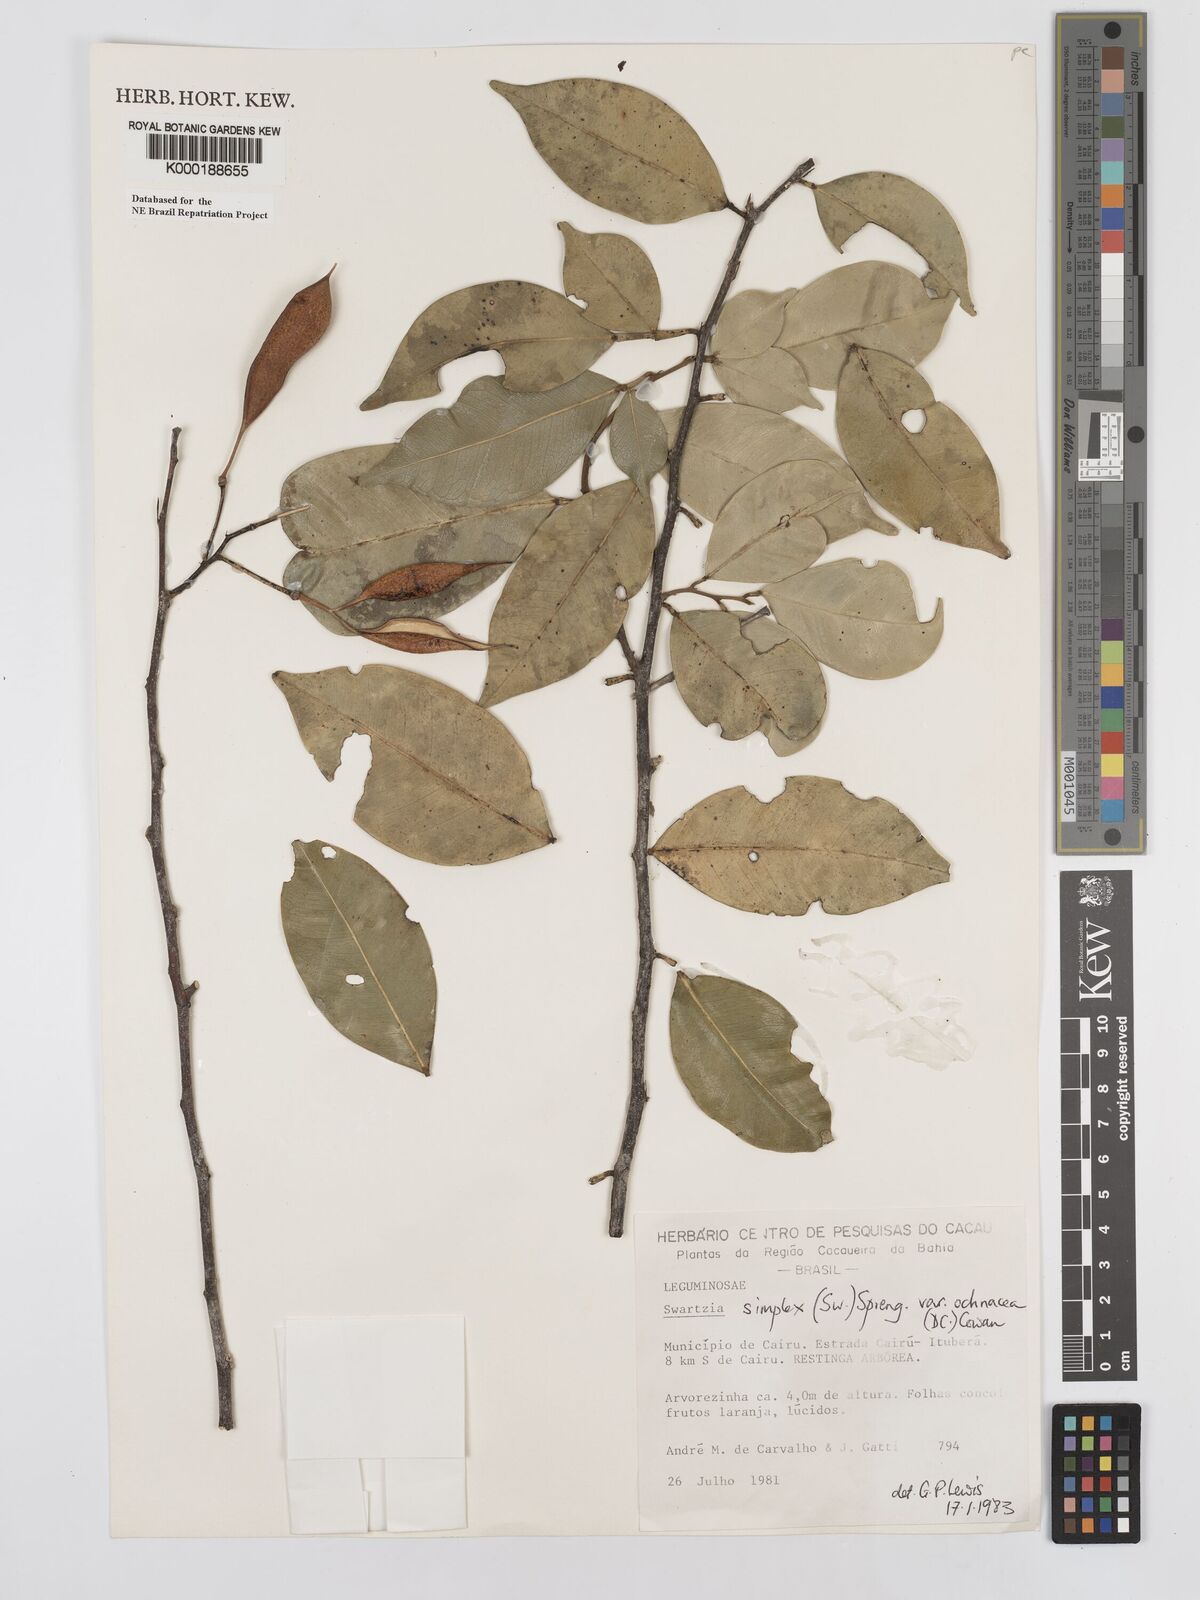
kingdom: Plantae
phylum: Tracheophyta
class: Magnoliopsida
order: Fabales
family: Fabaceae
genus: Swartzia
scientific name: Swartzia simplex
